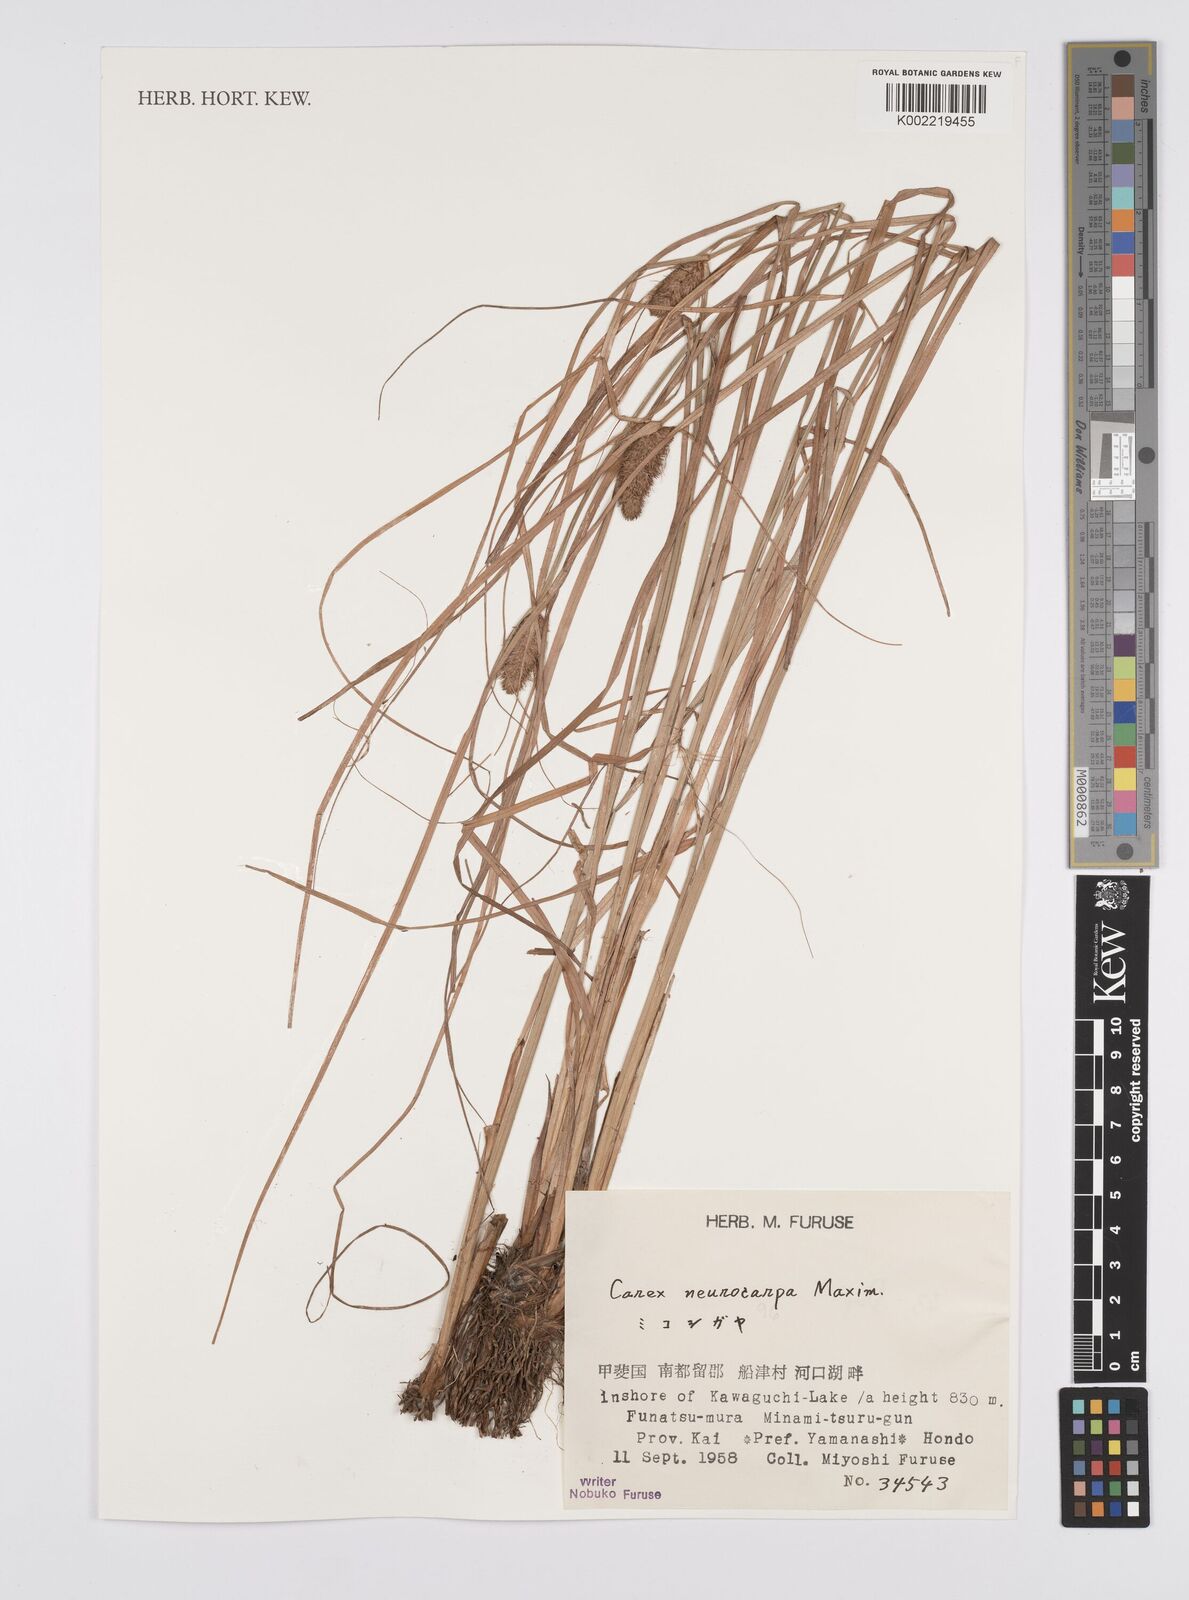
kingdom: Plantae
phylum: Tracheophyta
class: Liliopsida
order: Poales
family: Cyperaceae
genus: Carex
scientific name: Carex neurocarpa
